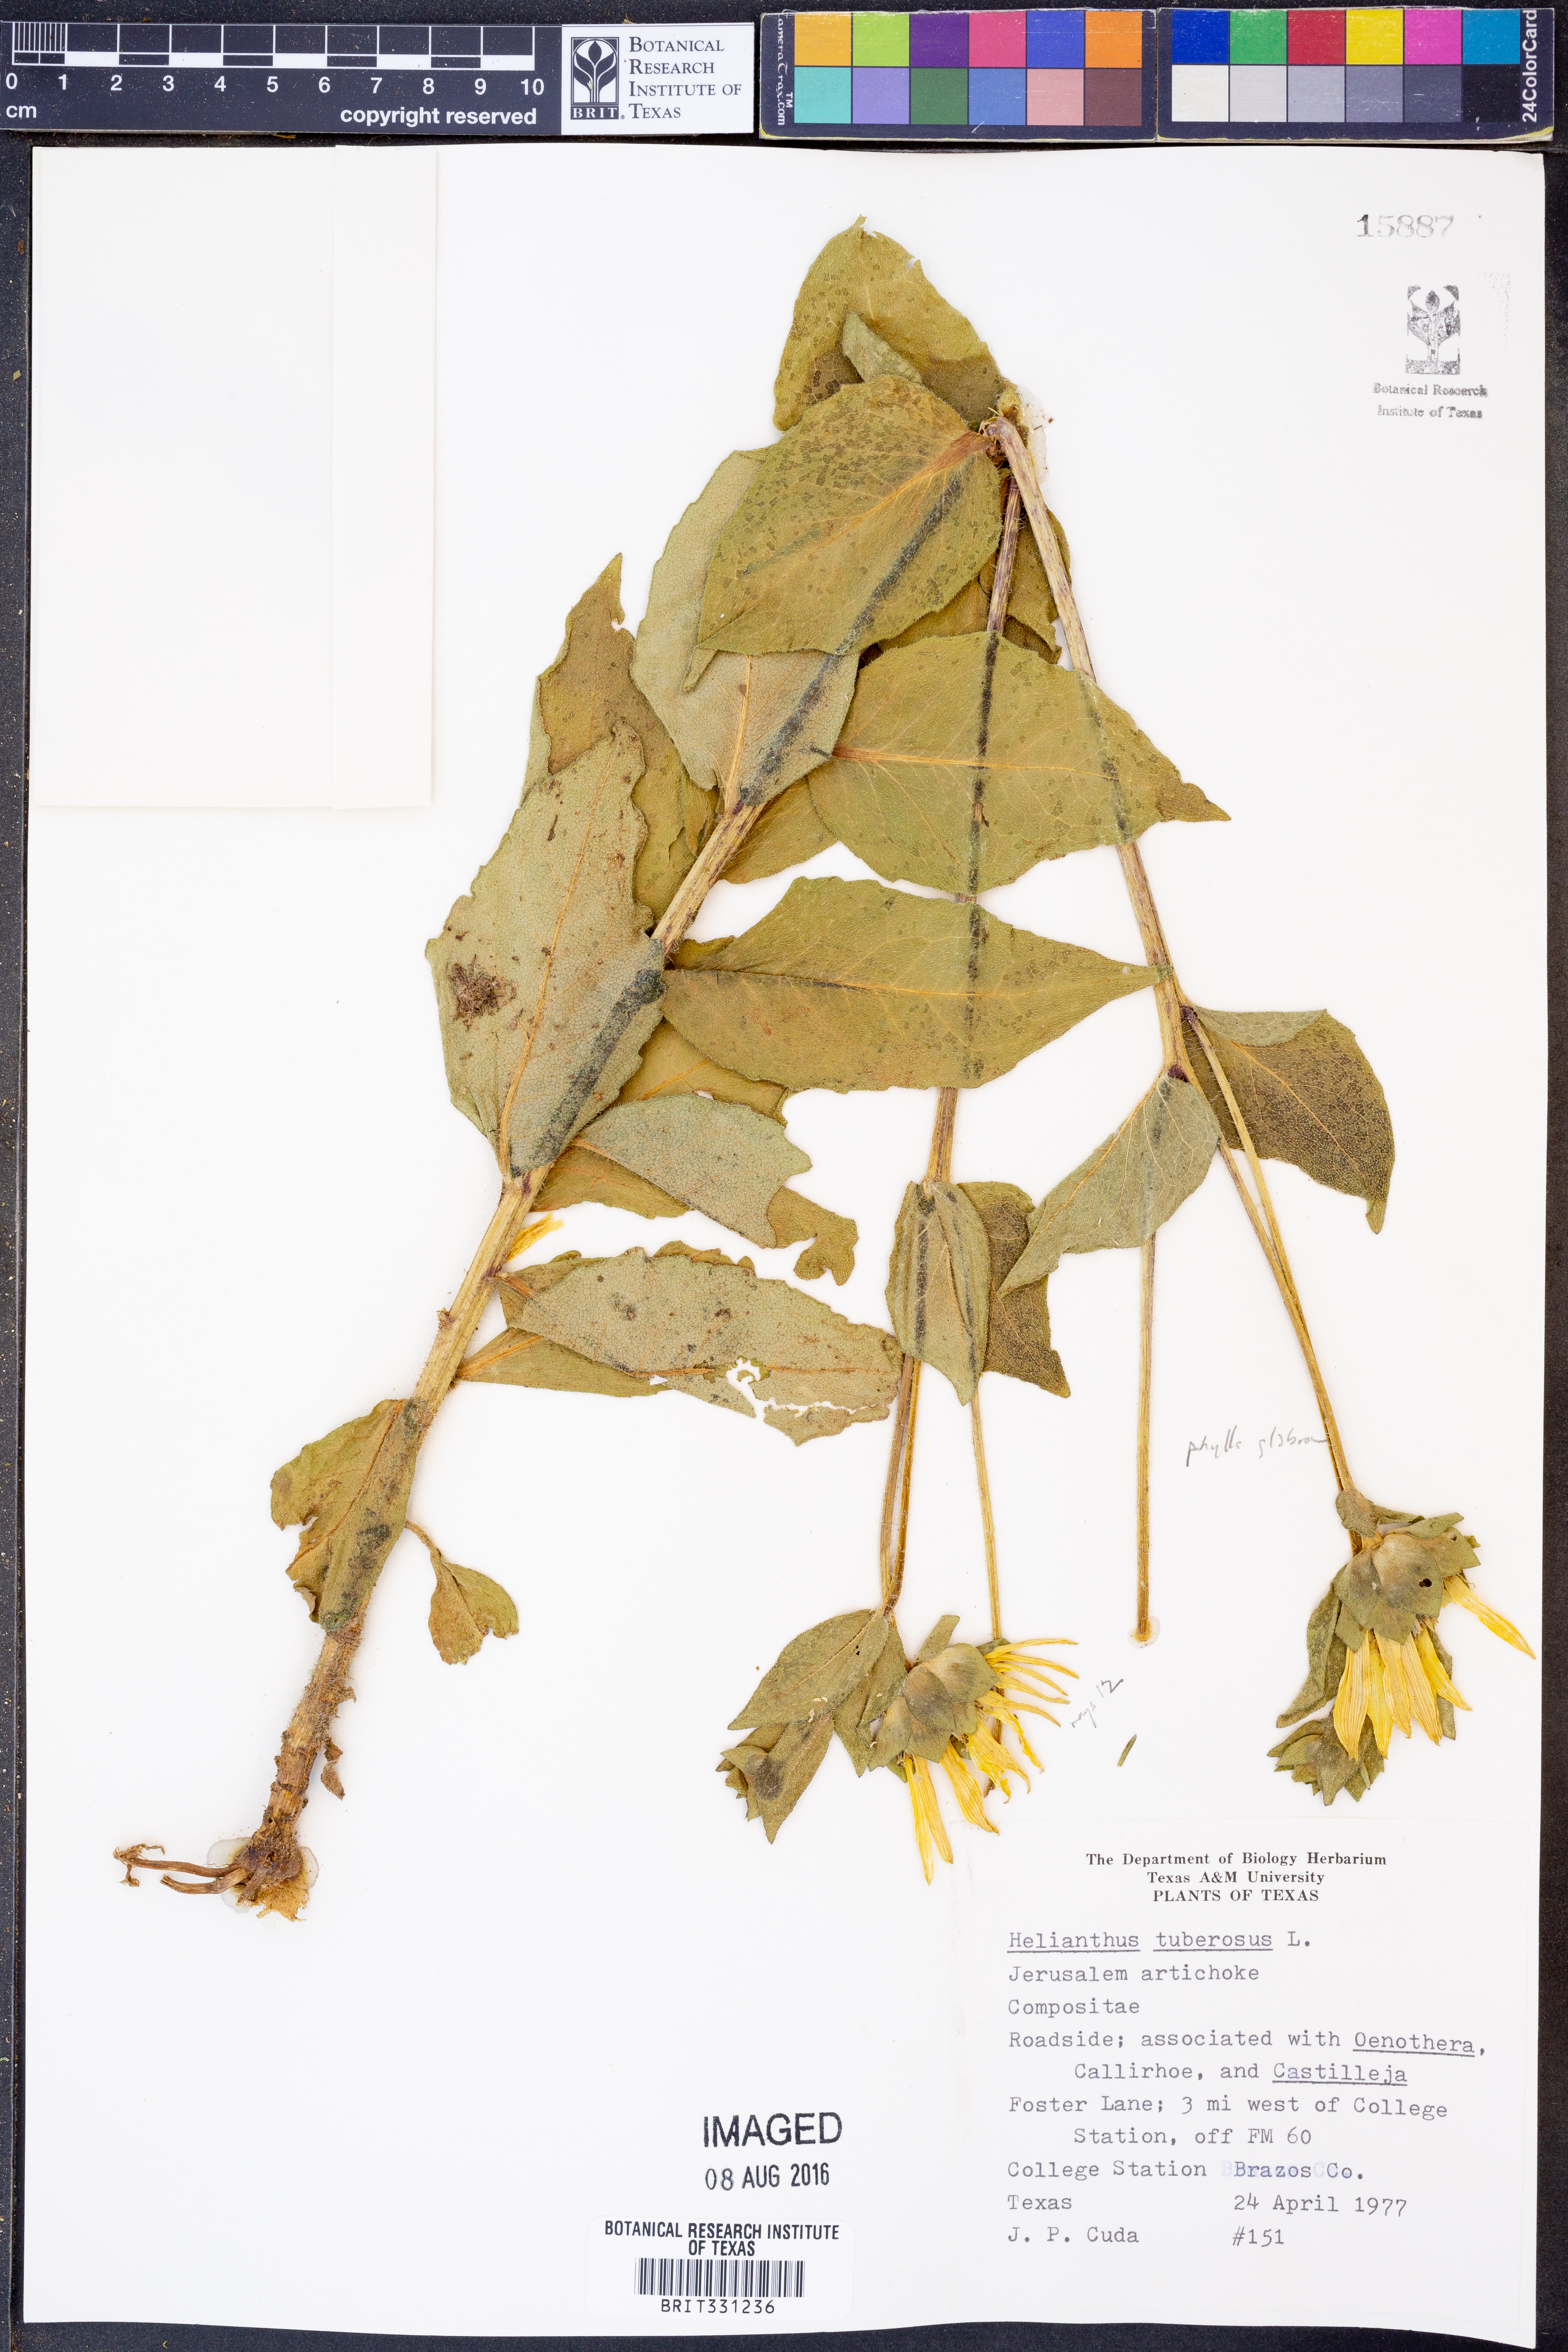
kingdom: Plantae
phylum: Tracheophyta
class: Magnoliopsida
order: Asterales
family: Asteraceae
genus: Helianthus
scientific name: Helianthus tuberosus
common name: Jerusalem artichoke
